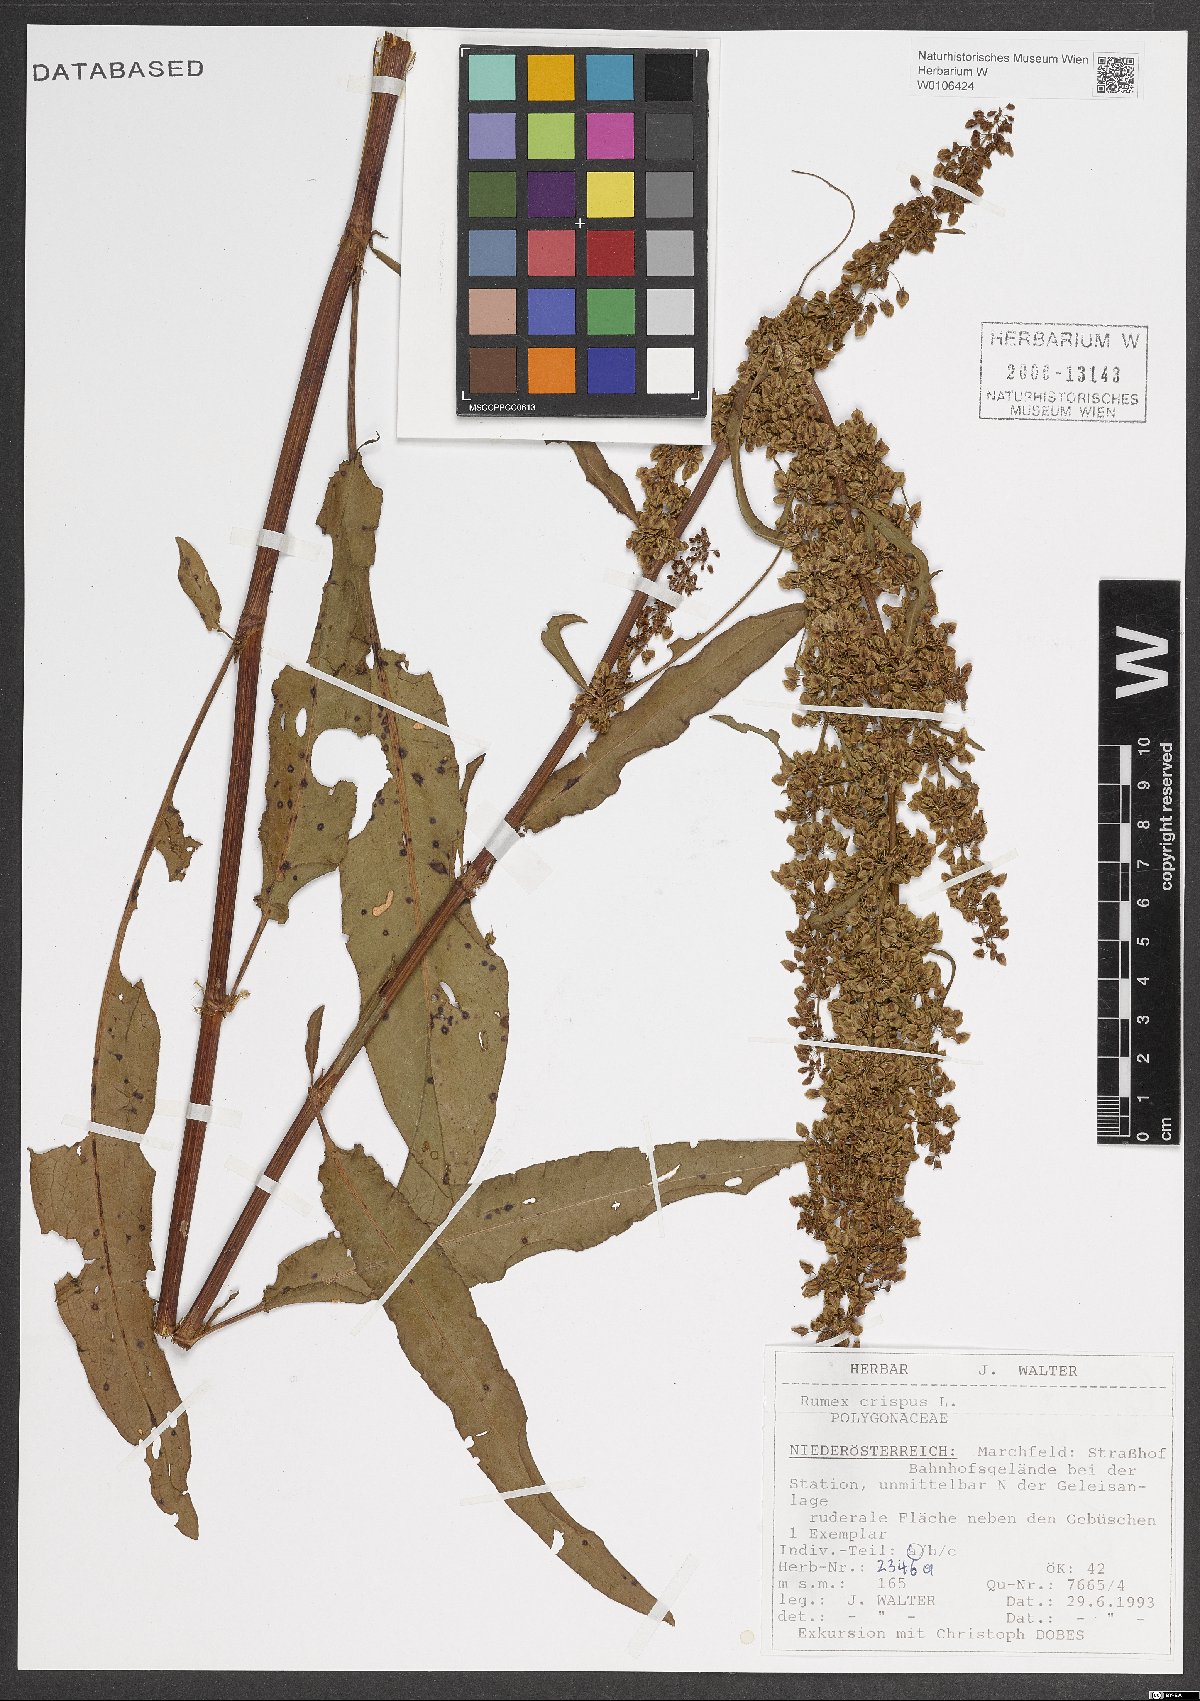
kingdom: Plantae
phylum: Tracheophyta
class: Magnoliopsida
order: Caryophyllales
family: Polygonaceae
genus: Rumex
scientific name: Rumex crispus
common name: Curled dock
